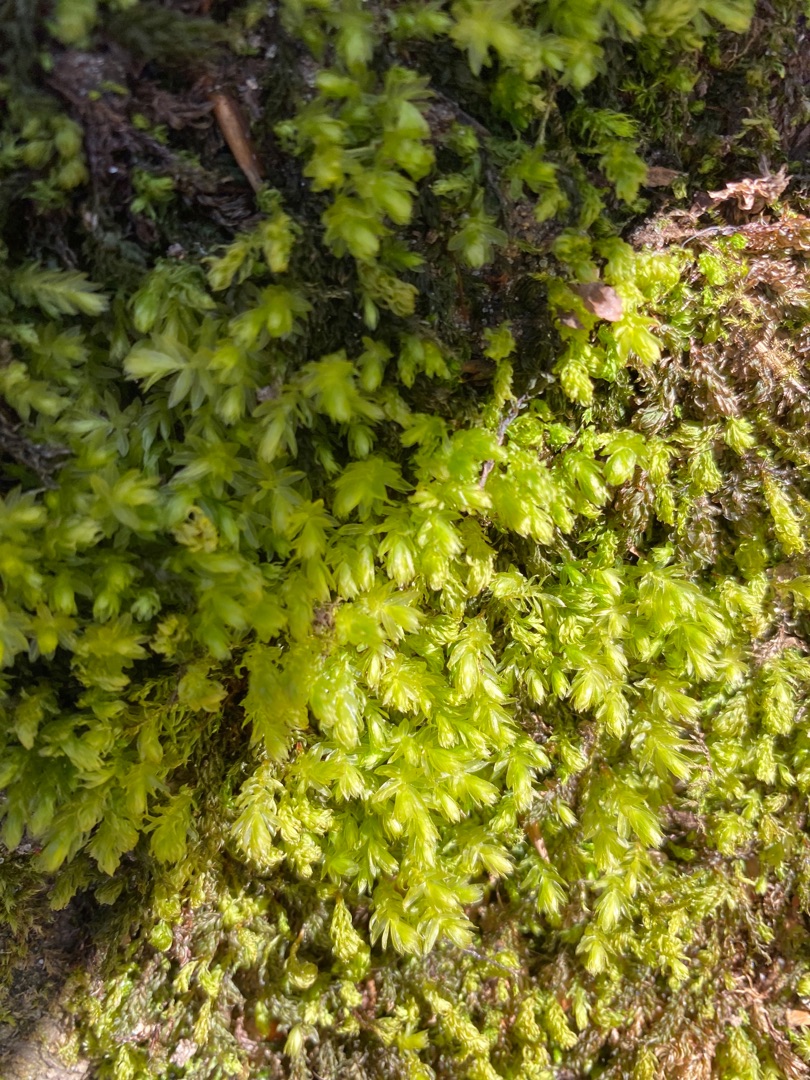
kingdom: Plantae
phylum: Bryophyta
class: Bryopsida
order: Bryales
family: Mniaceae
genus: Mnium
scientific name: Mnium hornum
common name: Brunfiltet stjernemos
